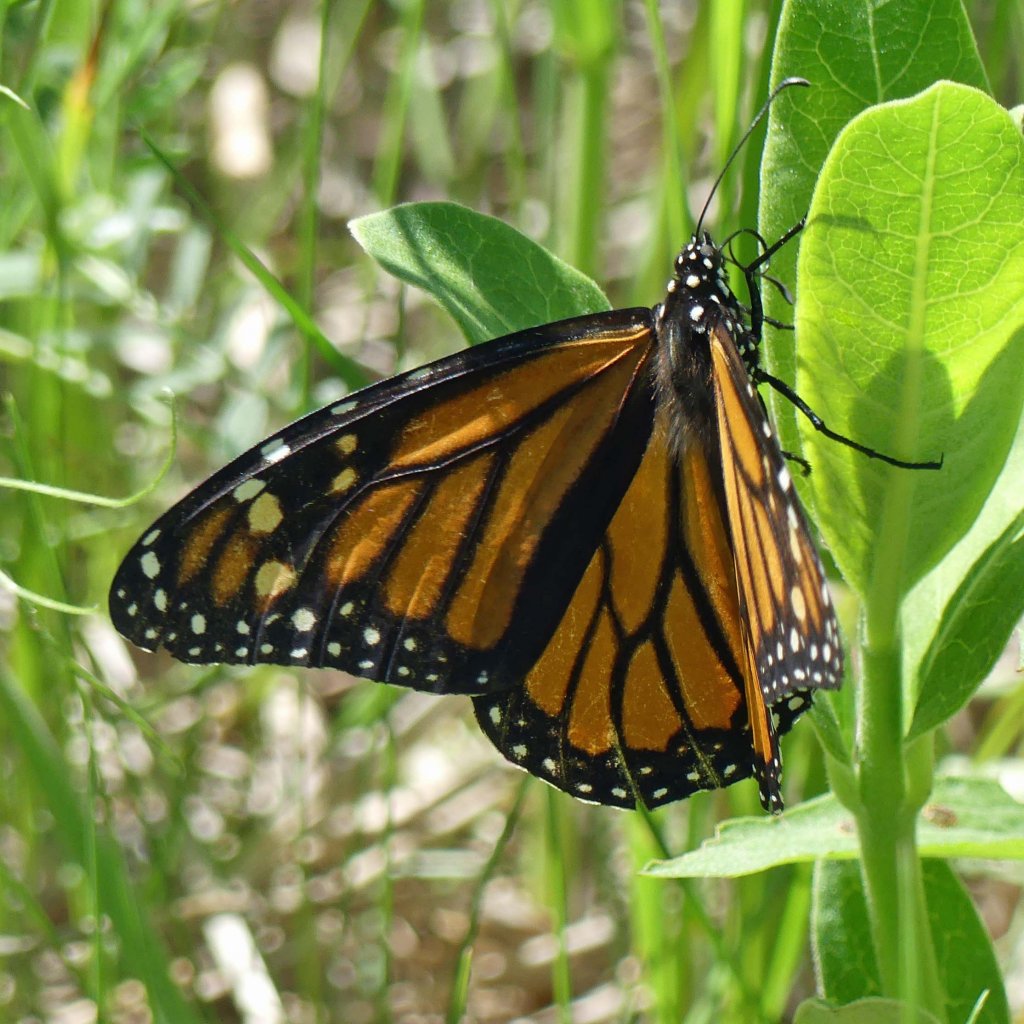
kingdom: Animalia
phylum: Arthropoda
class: Insecta
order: Lepidoptera
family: Nymphalidae
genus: Danaus
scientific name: Danaus plexippus
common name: Monarch
